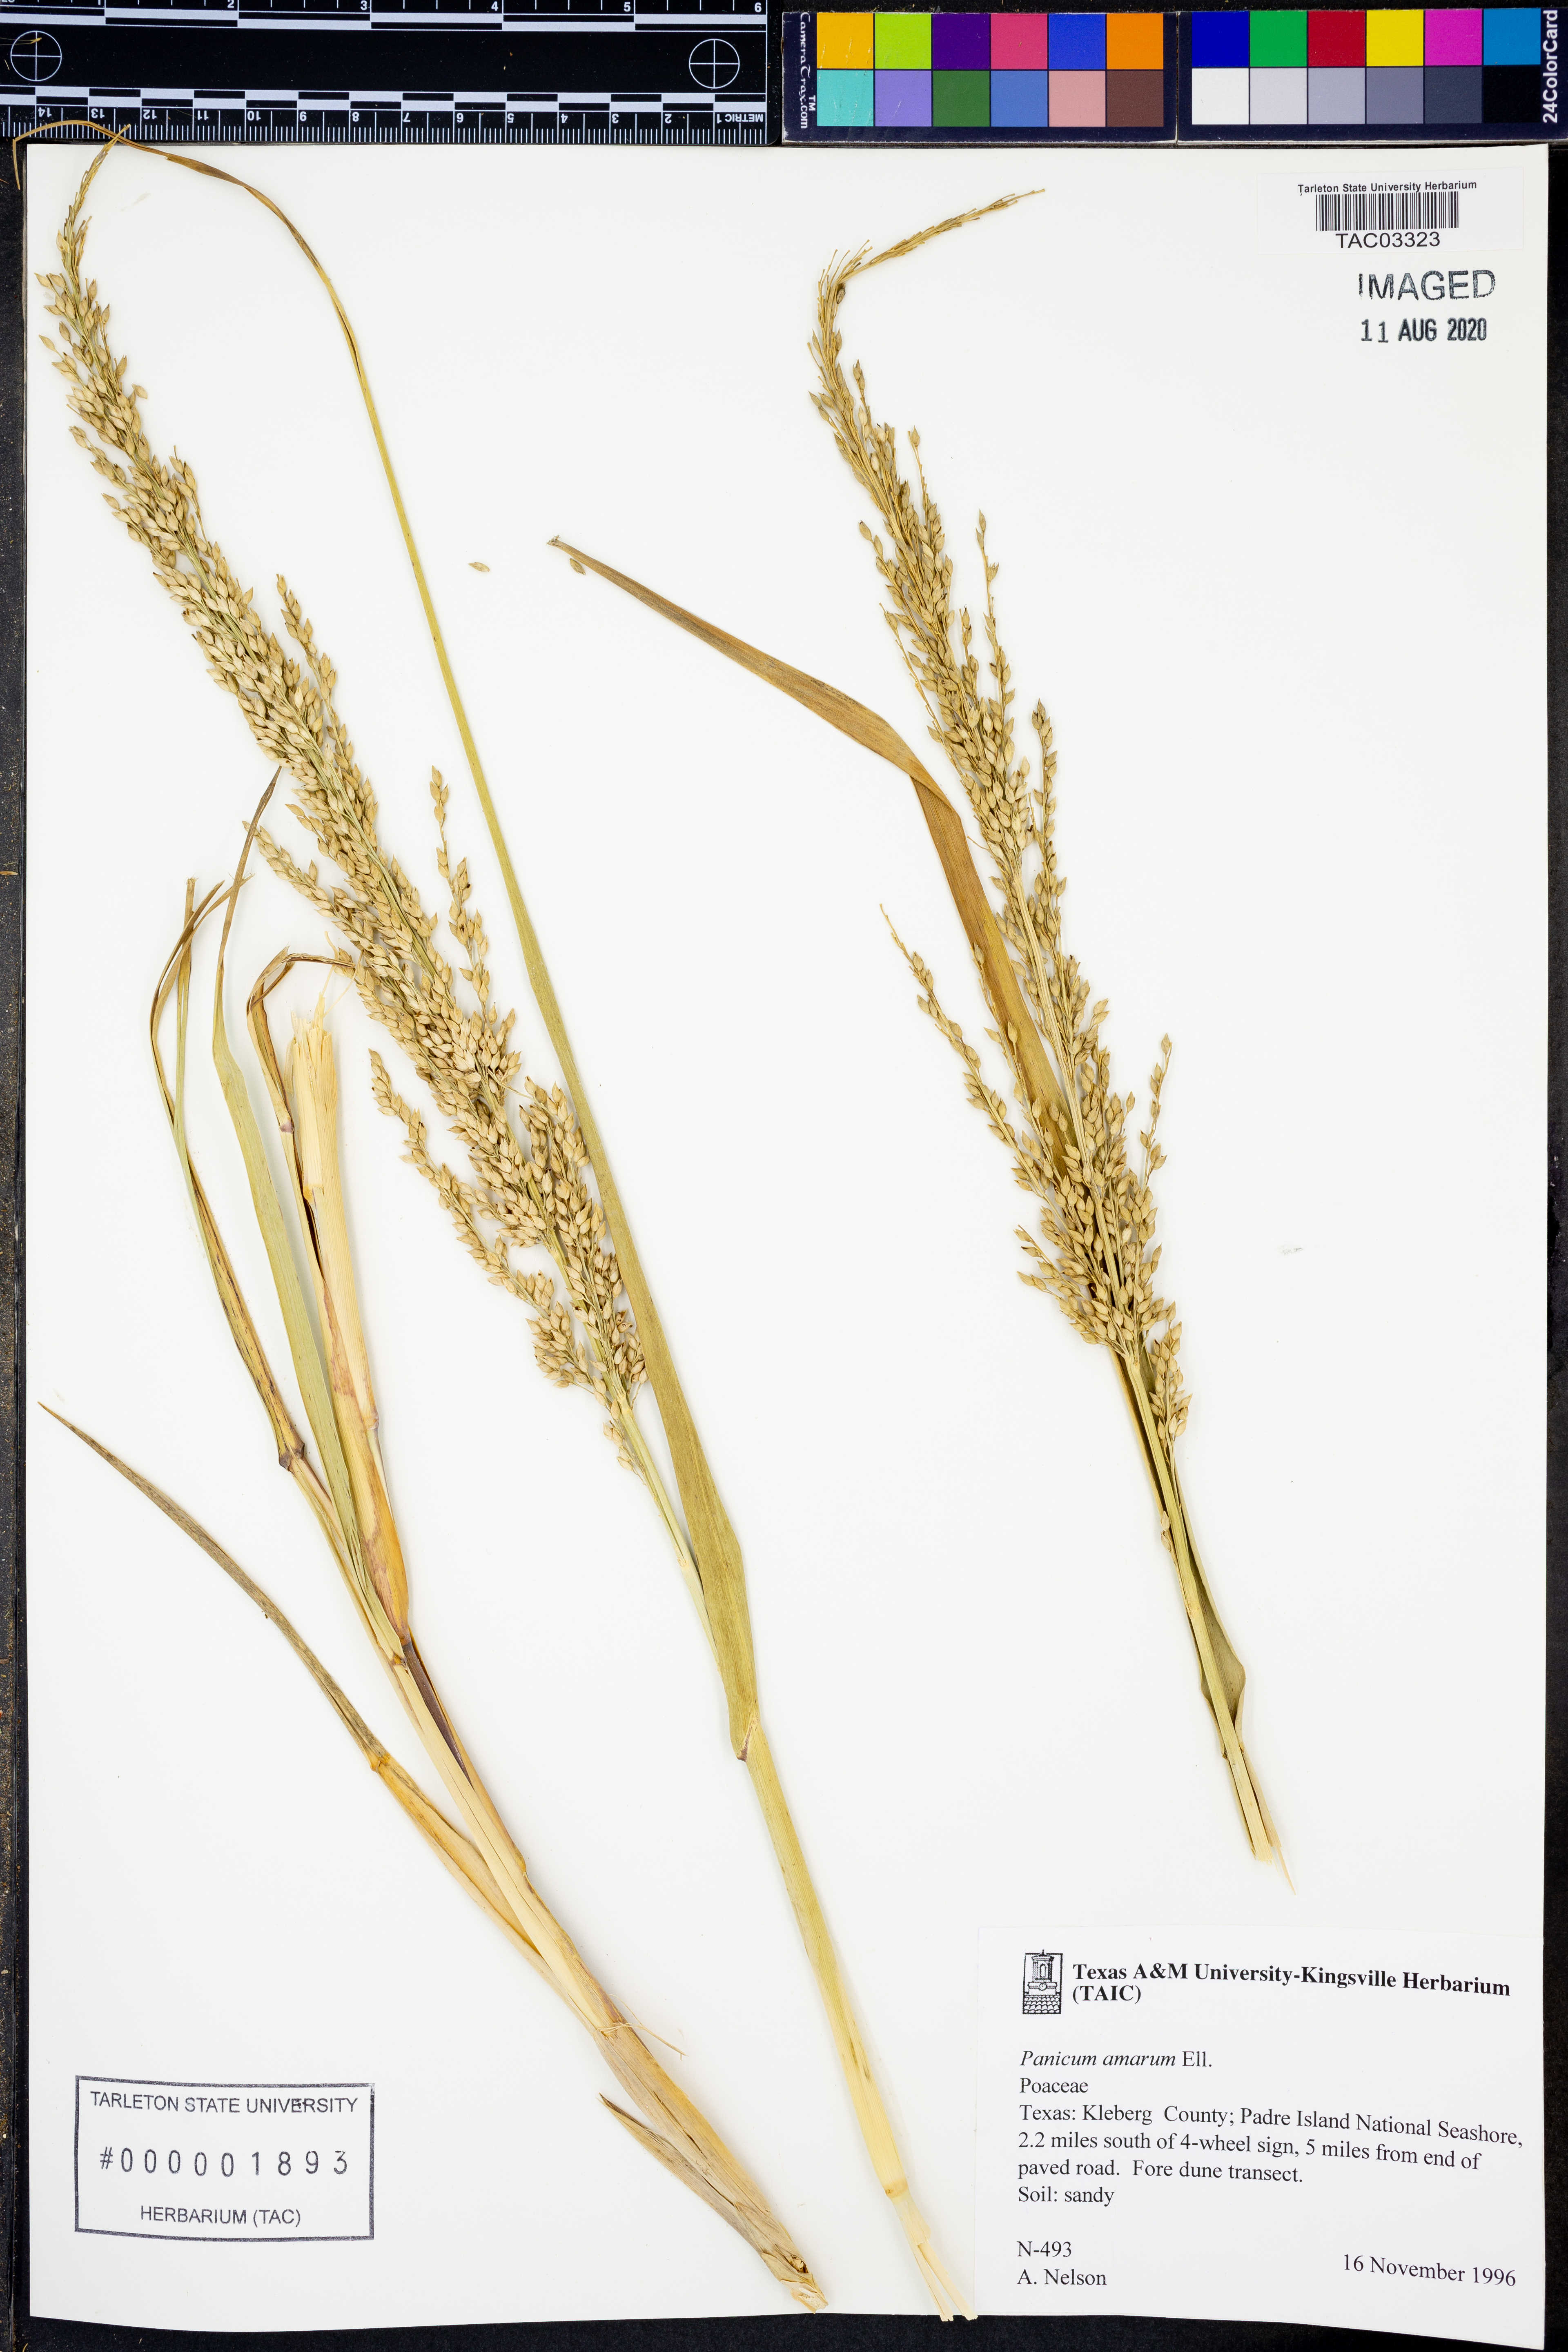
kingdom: Plantae
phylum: Tracheophyta
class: Liliopsida
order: Poales
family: Poaceae
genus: Panicum
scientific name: Panicum amarum
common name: Bitter panicum
